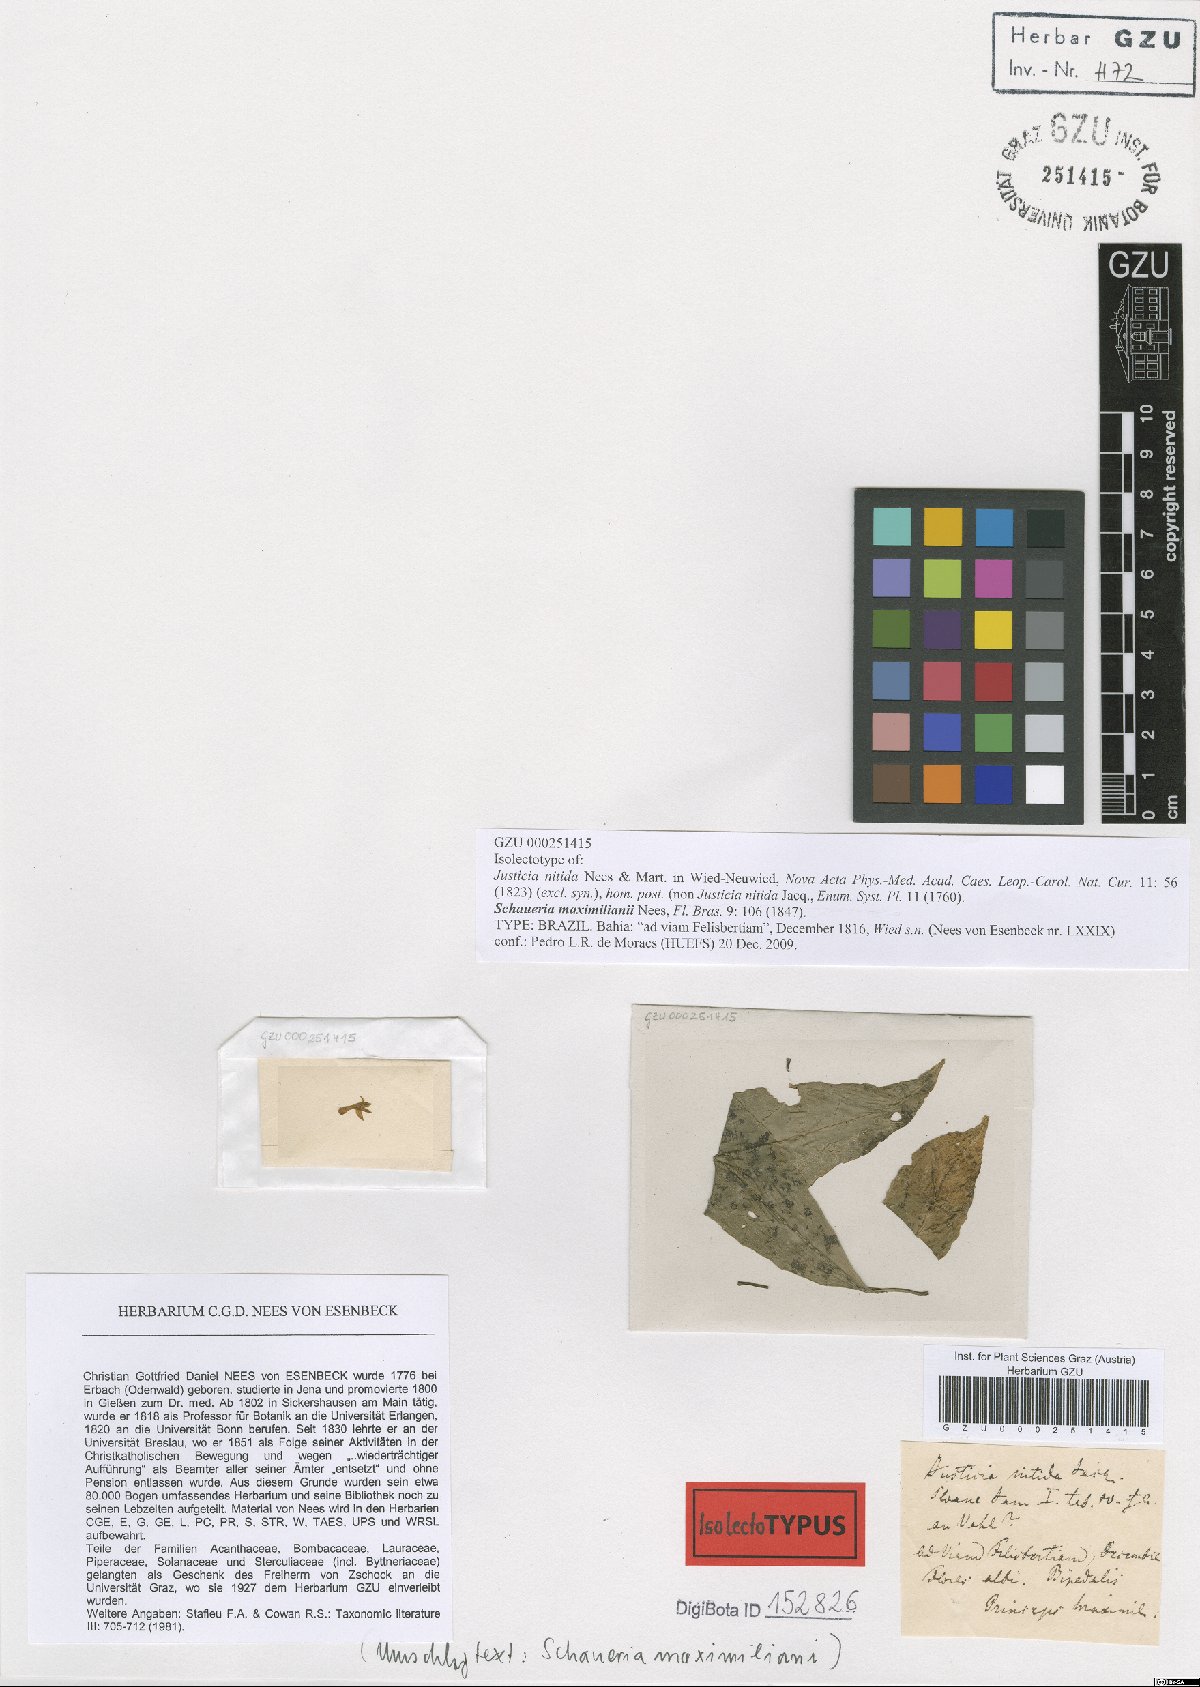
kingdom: Plantae
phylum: Tracheophyta
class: Magnoliopsida
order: Lamiales
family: Acanthaceae
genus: Schaueria
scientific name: Schaueria maximilianii
